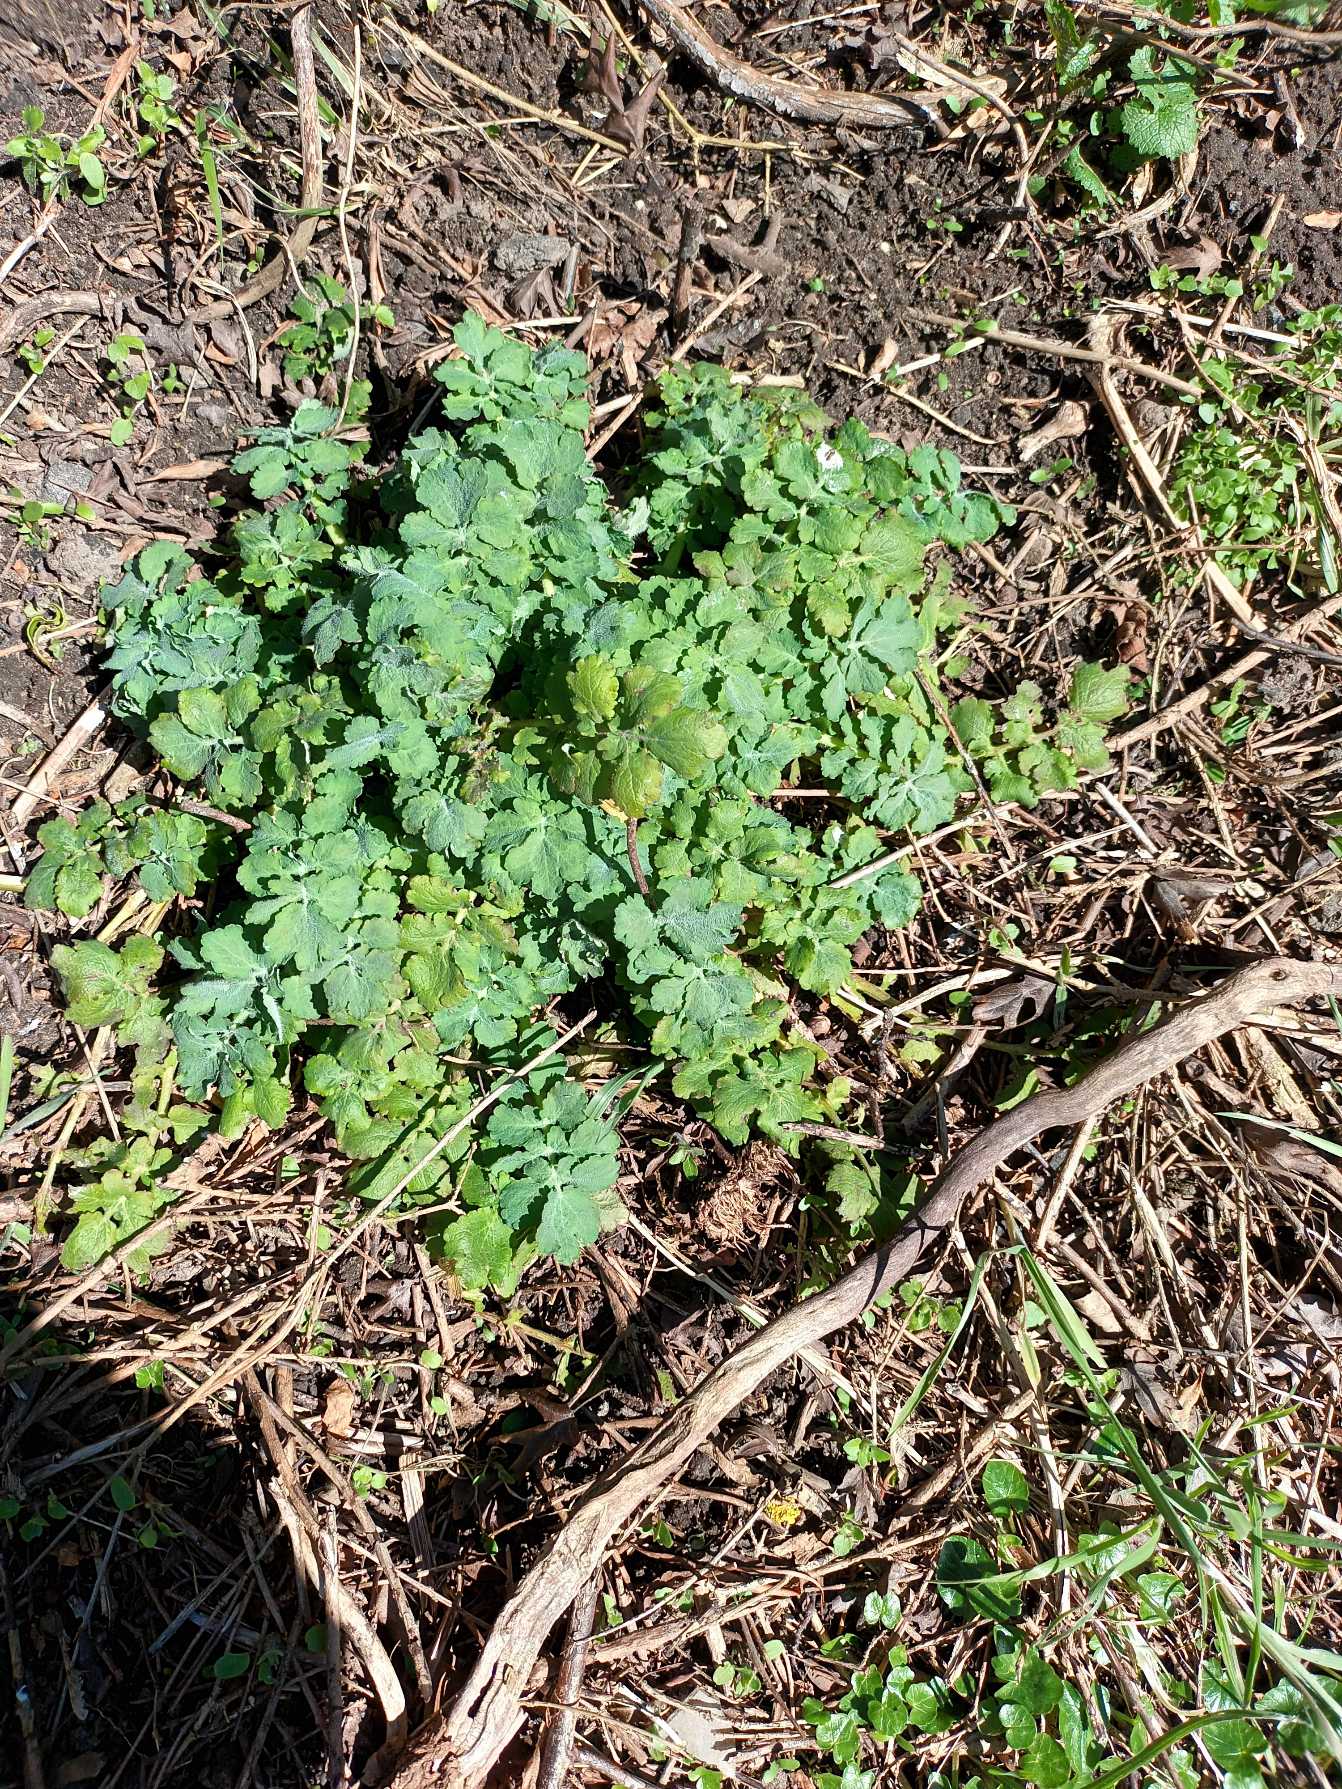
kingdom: Plantae
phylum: Tracheophyta
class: Magnoliopsida
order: Ranunculales
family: Papaveraceae
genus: Chelidonium
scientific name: Chelidonium majus
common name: Svaleurt
